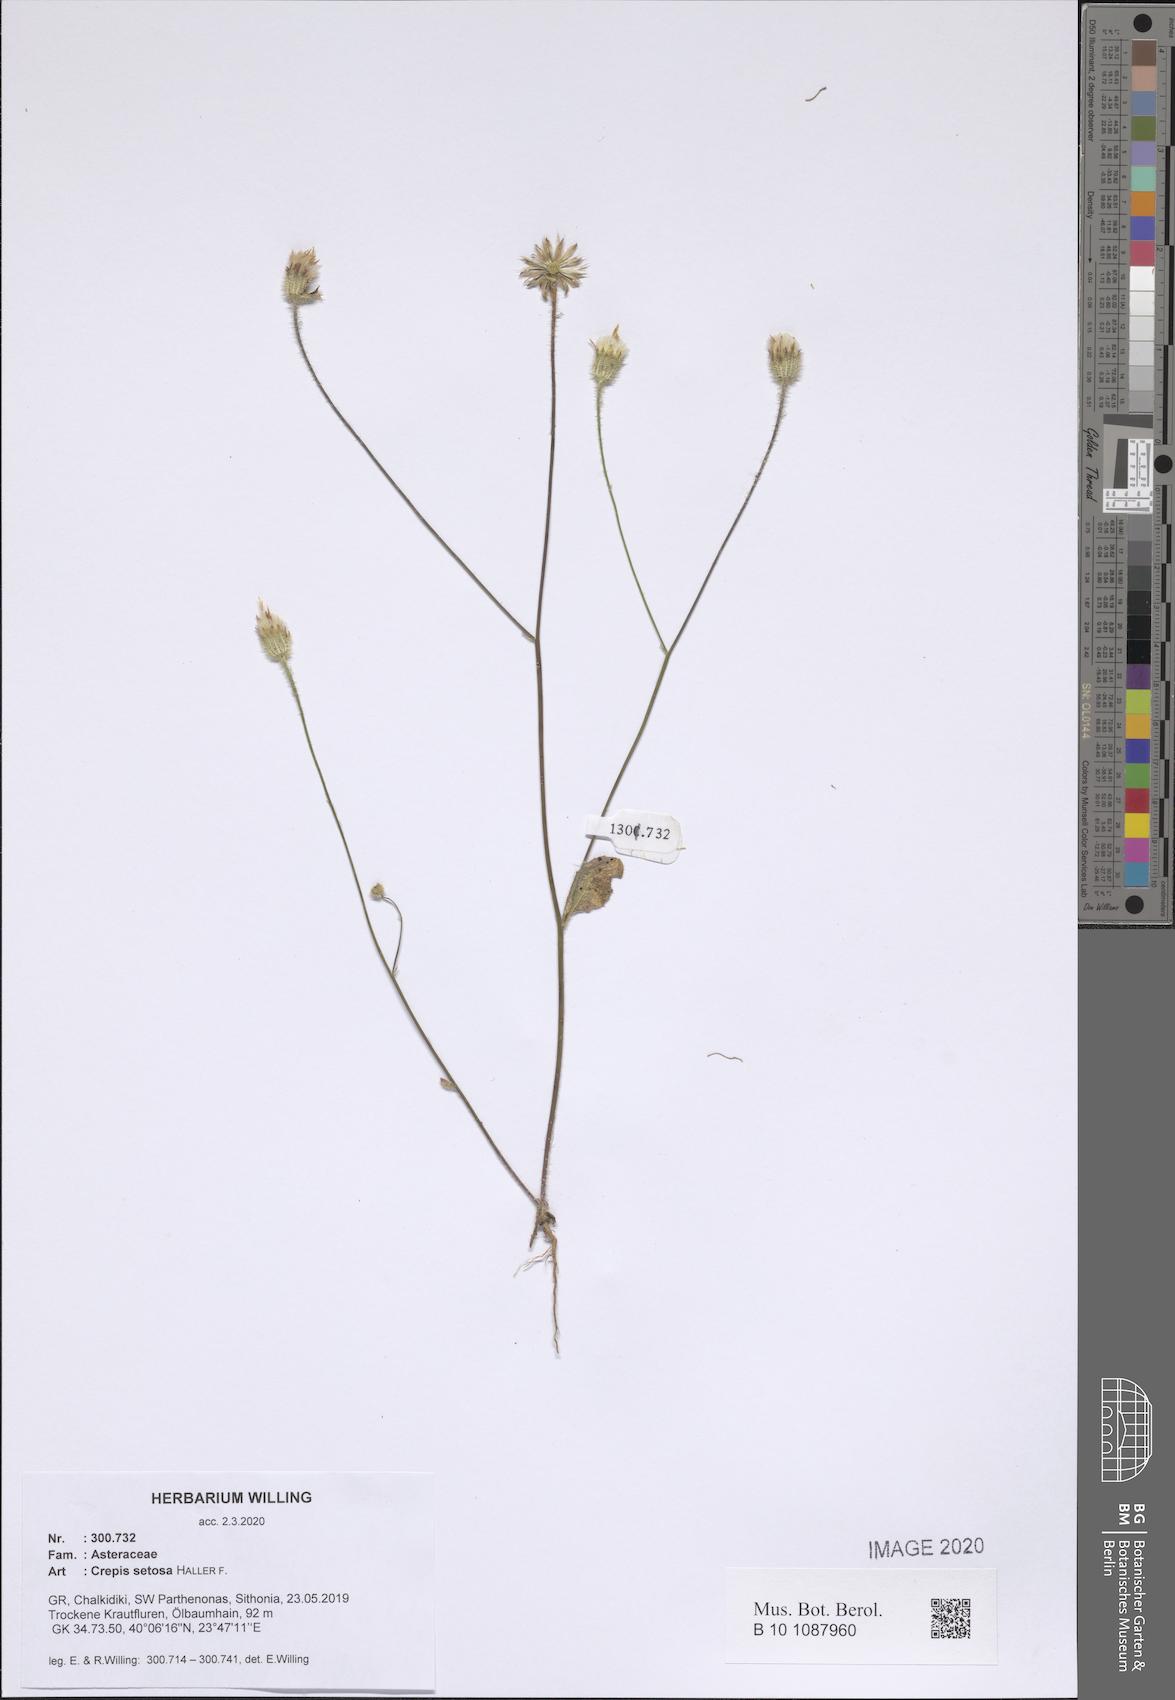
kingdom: Plantae
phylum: Tracheophyta
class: Magnoliopsida
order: Asterales
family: Asteraceae
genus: Crepis
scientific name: Crepis setosa
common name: Bristly hawk's-beard
